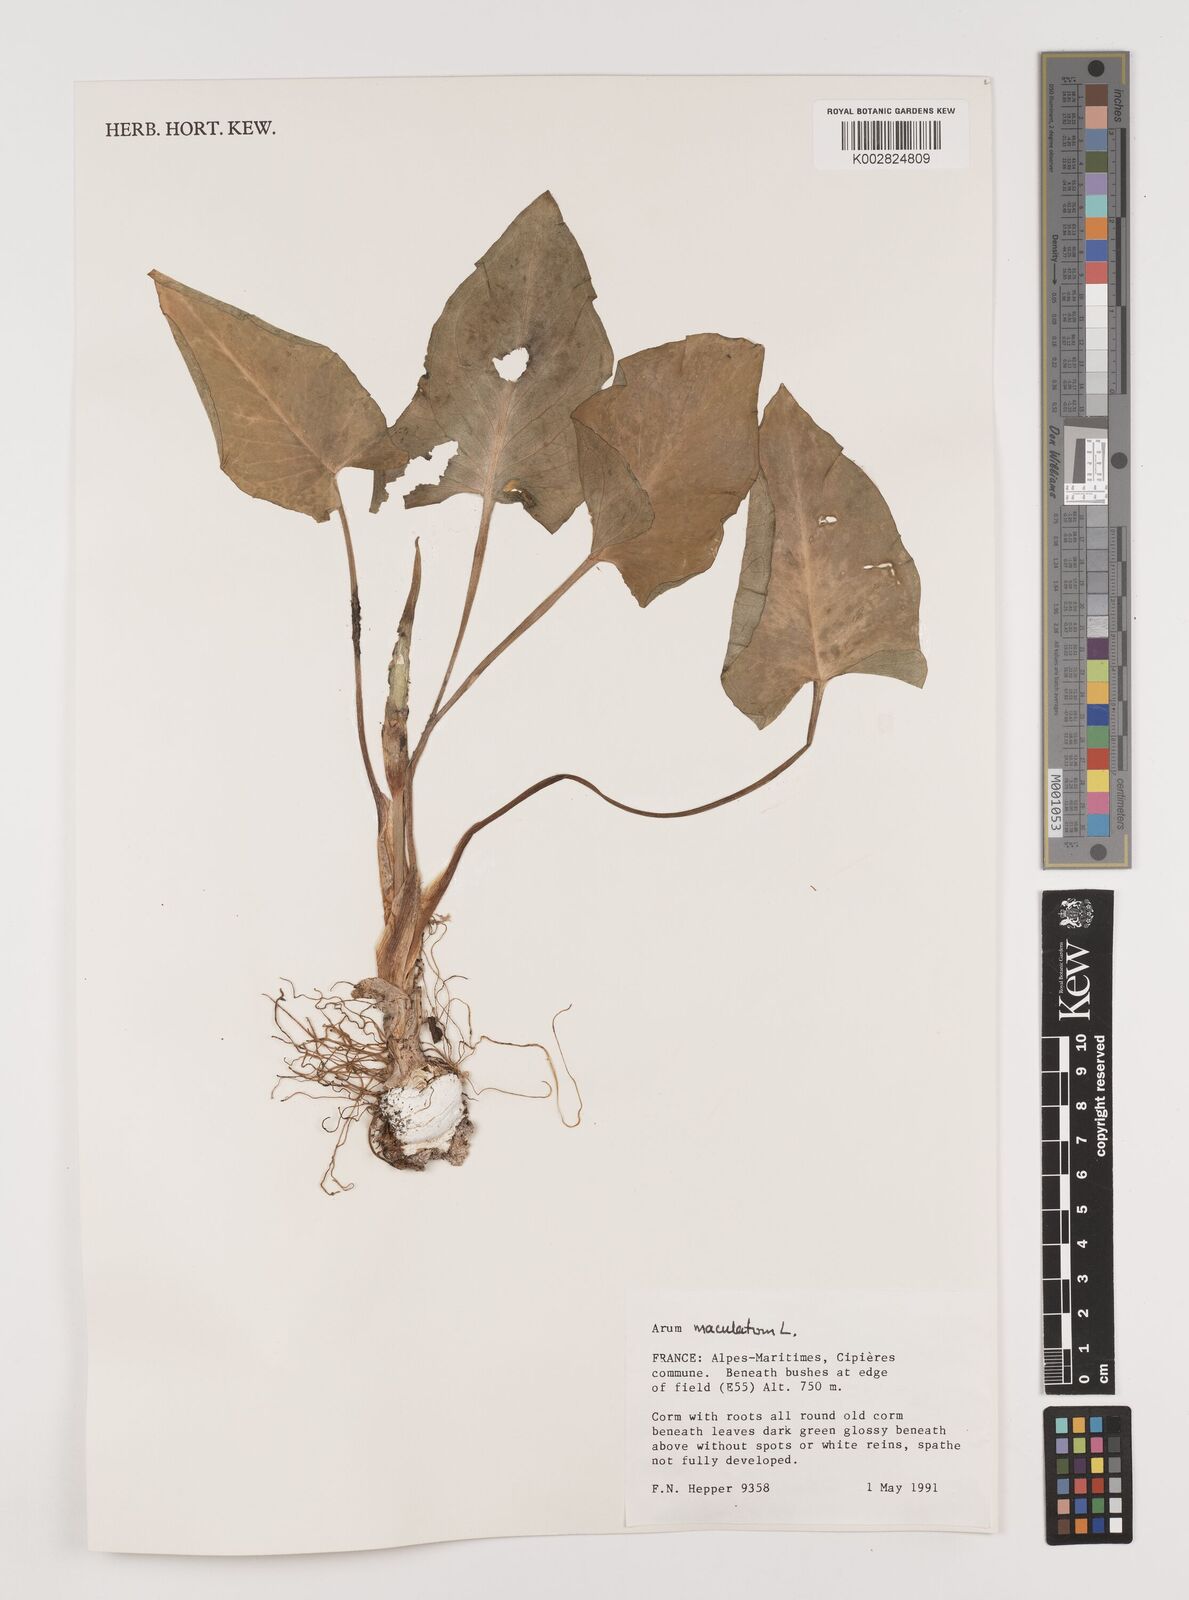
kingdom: Plantae
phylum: Tracheophyta
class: Liliopsida
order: Alismatales
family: Araceae
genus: Arum
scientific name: Arum maculatum
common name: Lords-and-ladies
